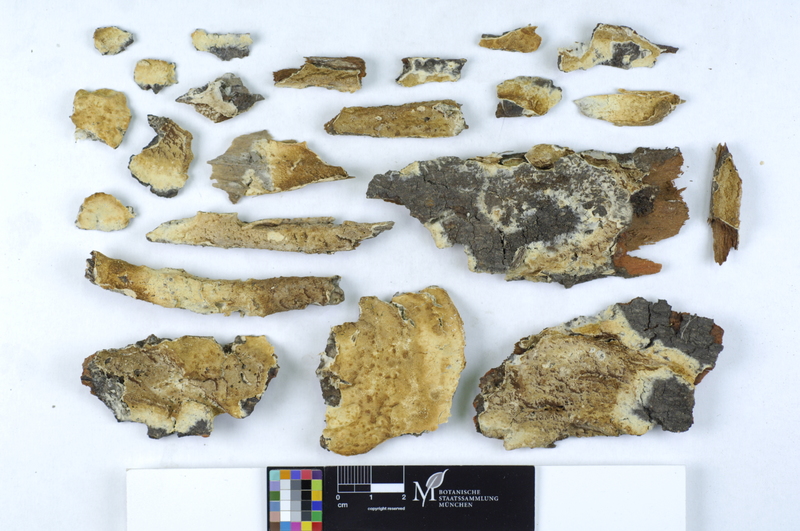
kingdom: Plantae
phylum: Tracheophyta
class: Magnoliopsida
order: Sapindales
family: Sapindaceae
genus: Aesculus
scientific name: Aesculus
